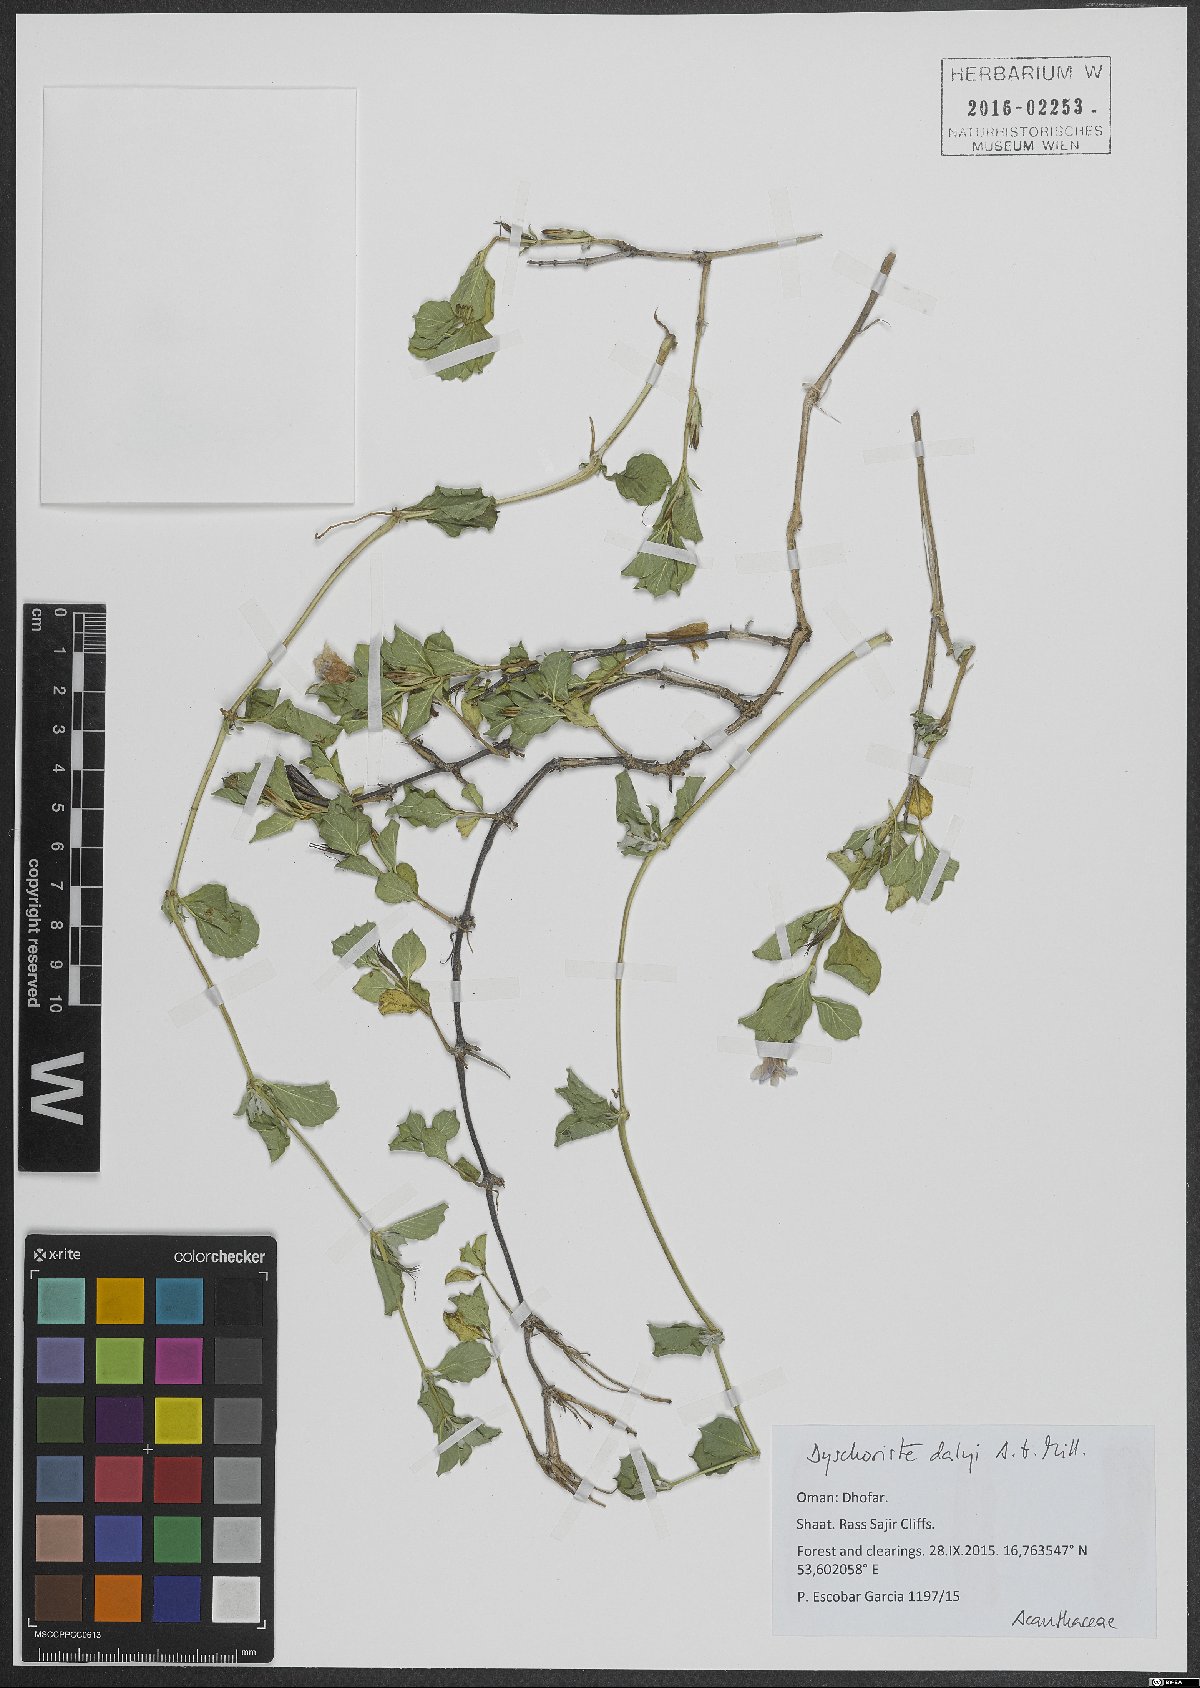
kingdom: Plantae
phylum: Tracheophyta
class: Magnoliopsida
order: Lamiales
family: Acanthaceae
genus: Dyschoriste
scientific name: Dyschoriste dalyi
